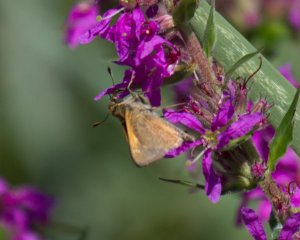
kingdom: Animalia
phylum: Arthropoda
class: Insecta
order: Lepidoptera
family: Hesperiidae
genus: Polites
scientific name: Polites themistocles
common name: Tawny-edged Skipper
